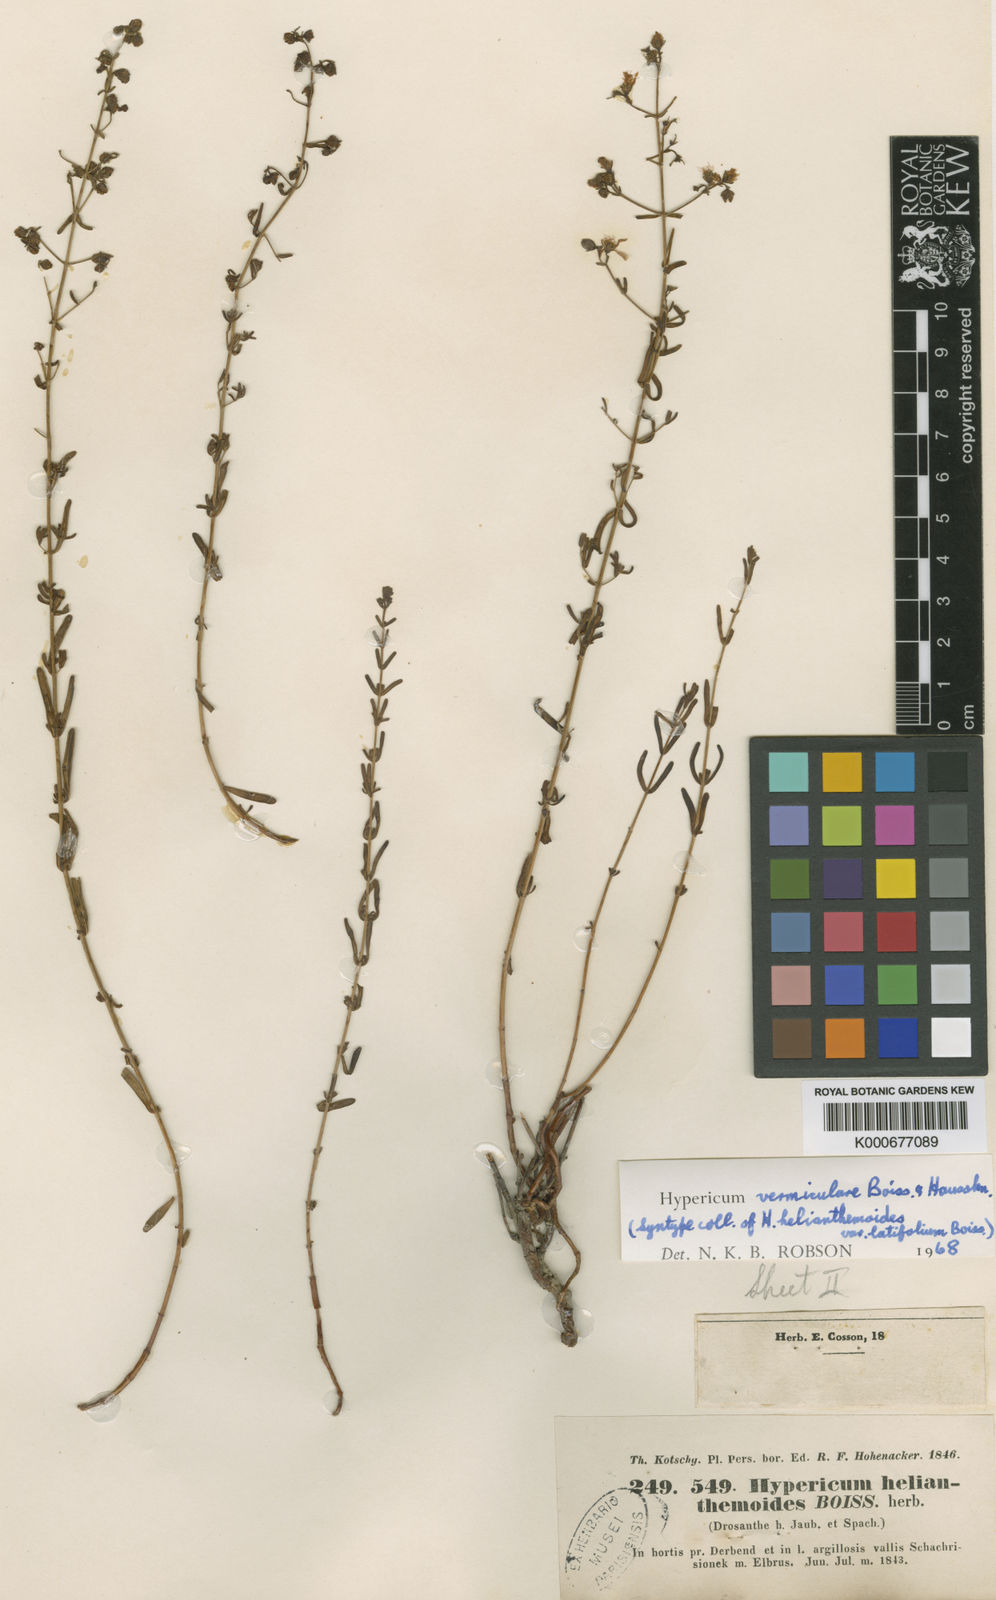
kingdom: Plantae
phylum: Tracheophyta
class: Magnoliopsida
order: Malpighiales
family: Hypericaceae
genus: Hypericum
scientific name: Hypericum vermiculare
